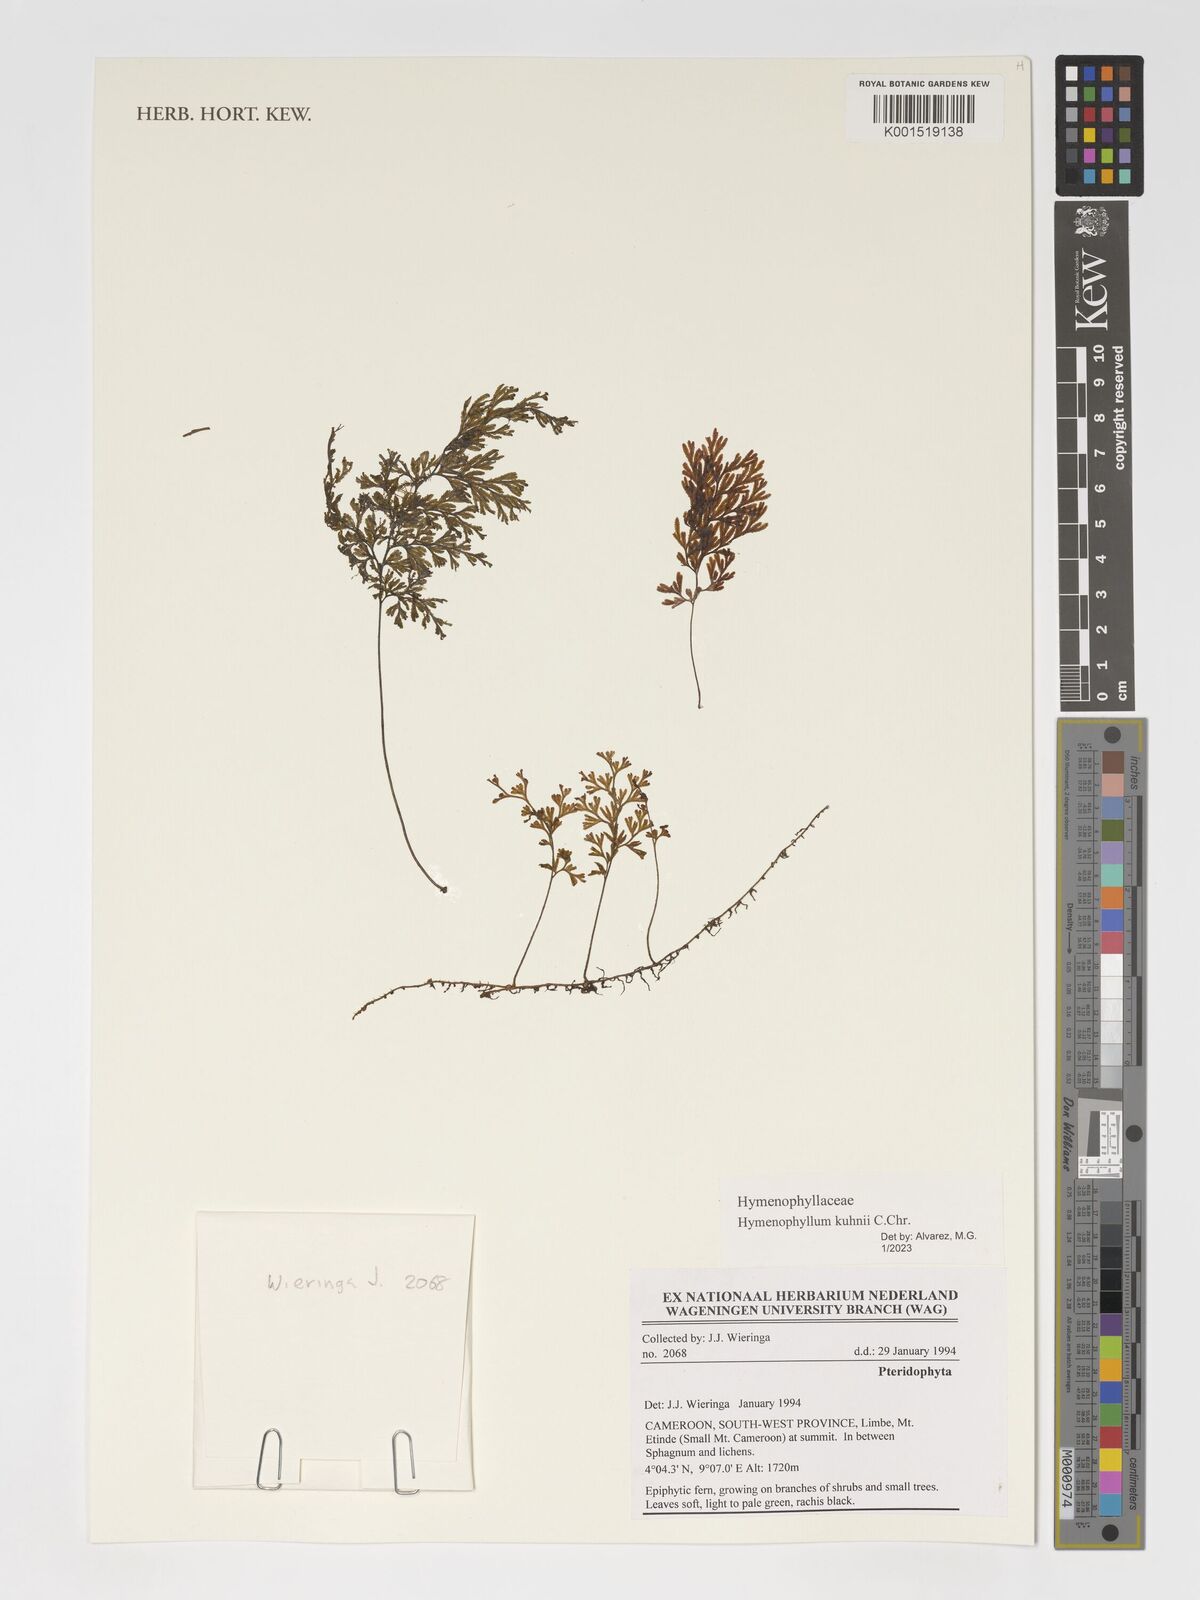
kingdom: Plantae
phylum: Tracheophyta
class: Polypodiopsida
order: Hymenophyllales
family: Hymenophyllaceae
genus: Hymenophyllum
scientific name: Hymenophyllum kuhnii
